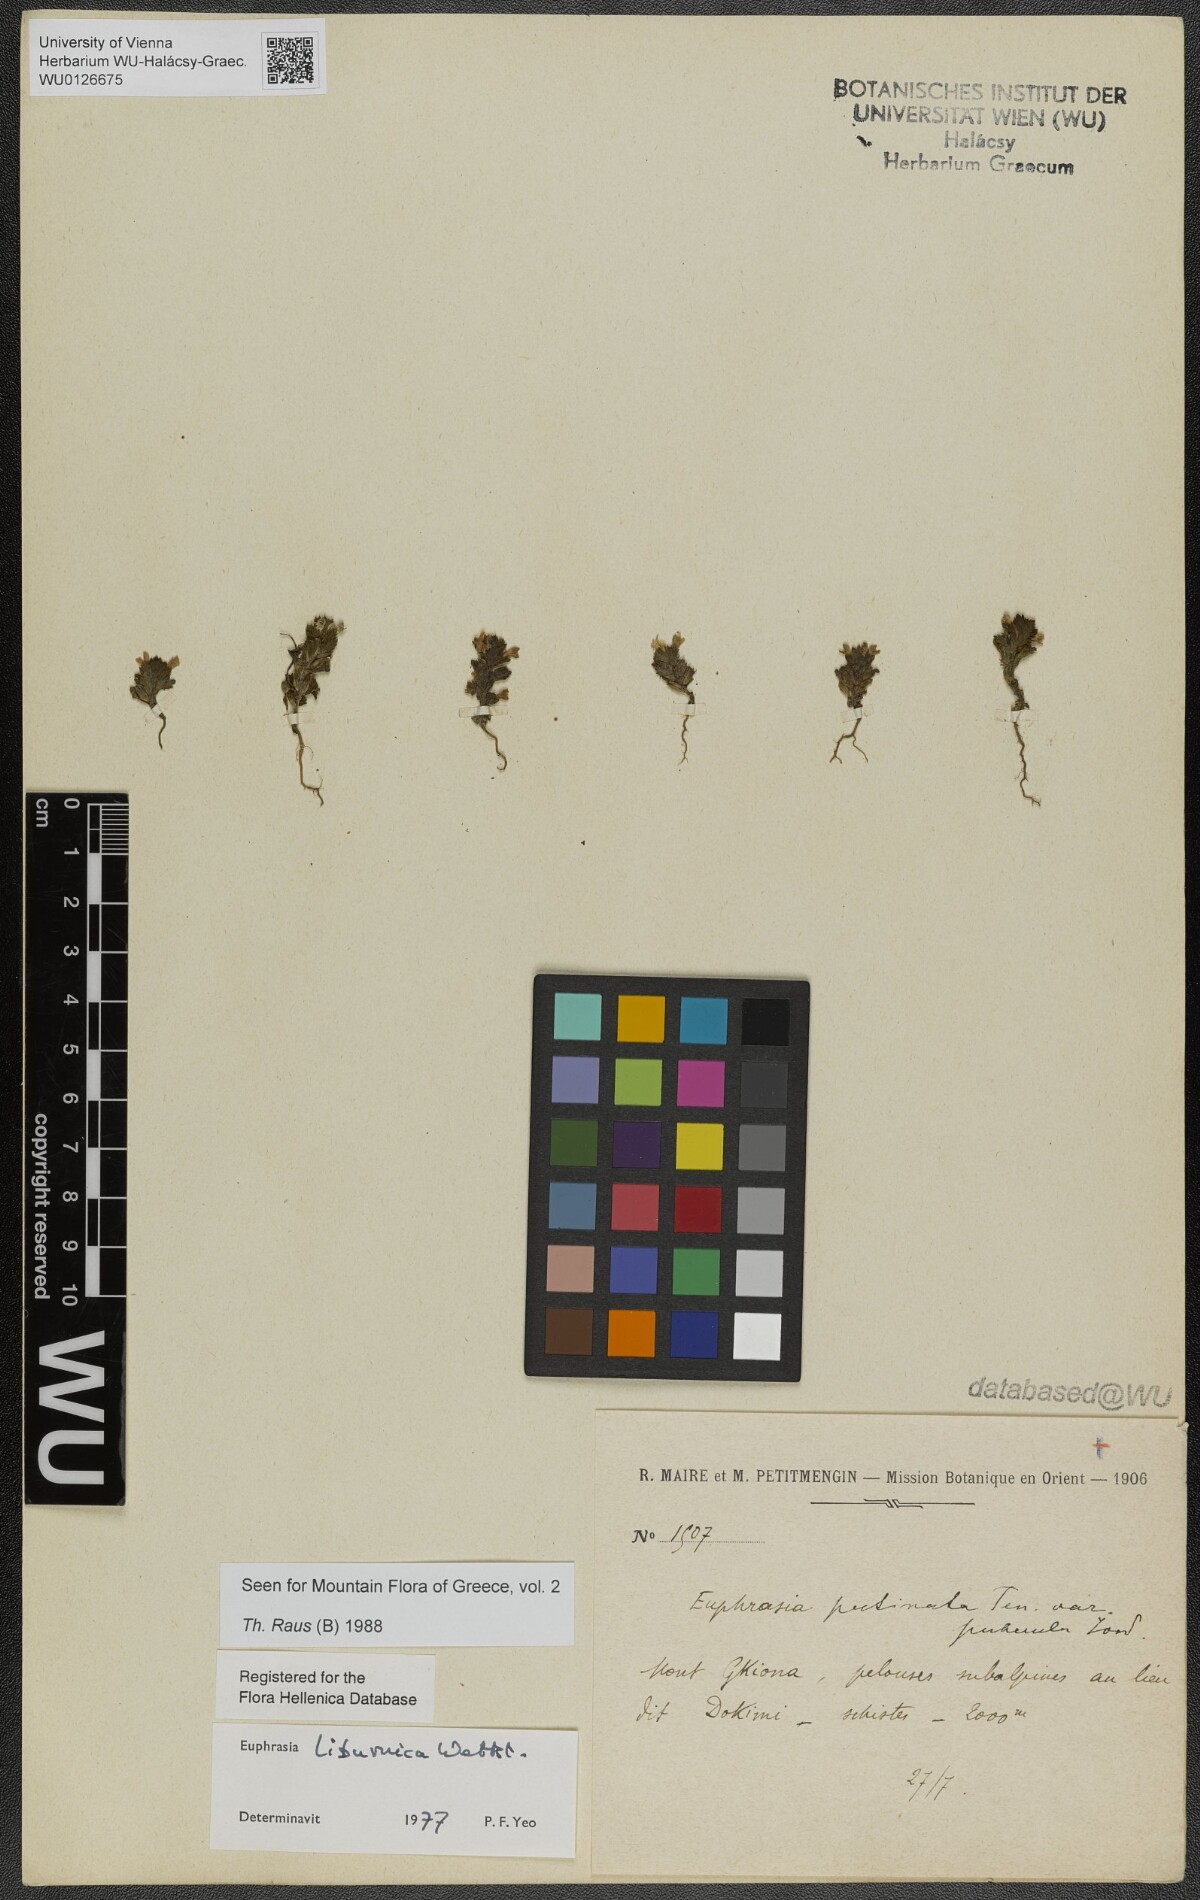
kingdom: Plantae
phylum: Tracheophyta
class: Magnoliopsida
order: Lamiales
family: Orobanchaceae
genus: Euphrasia
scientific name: Euphrasia liburnica
